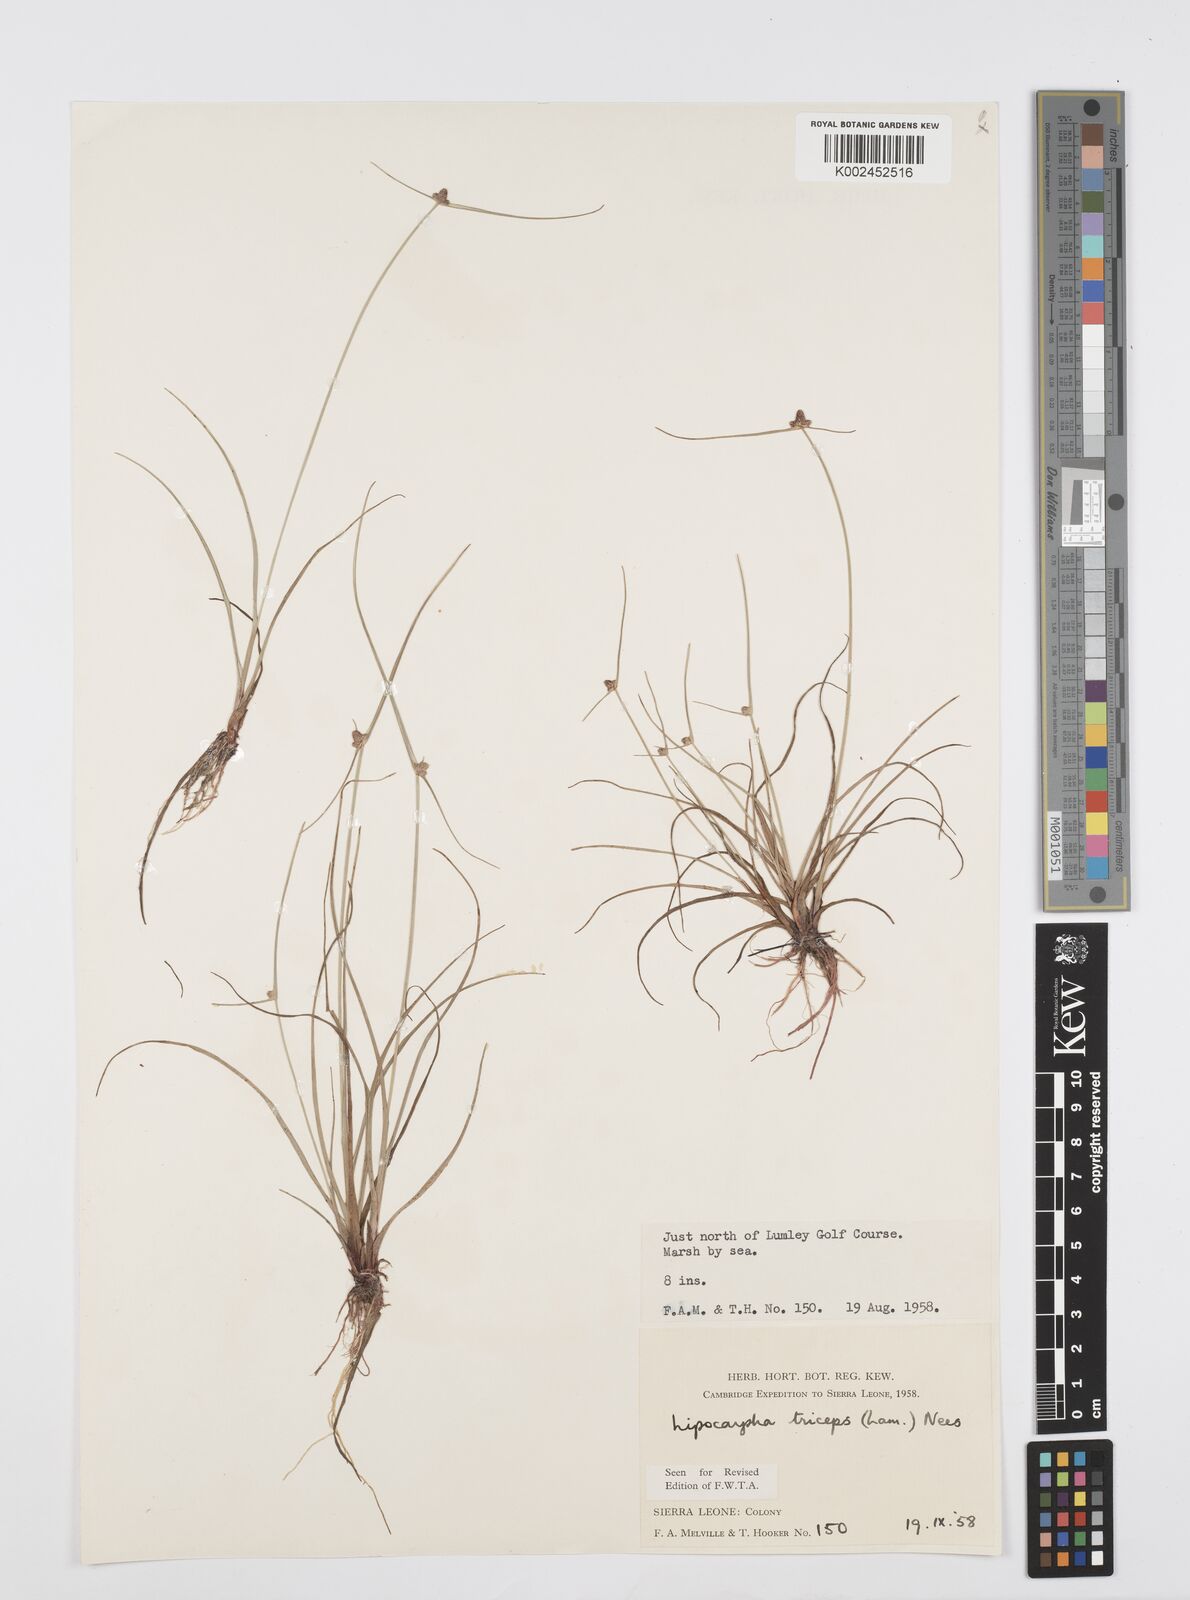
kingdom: Plantae
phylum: Tracheophyta
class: Liliopsida
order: Poales
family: Cyperaceae
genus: Cyperus
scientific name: Cyperus filiformis
